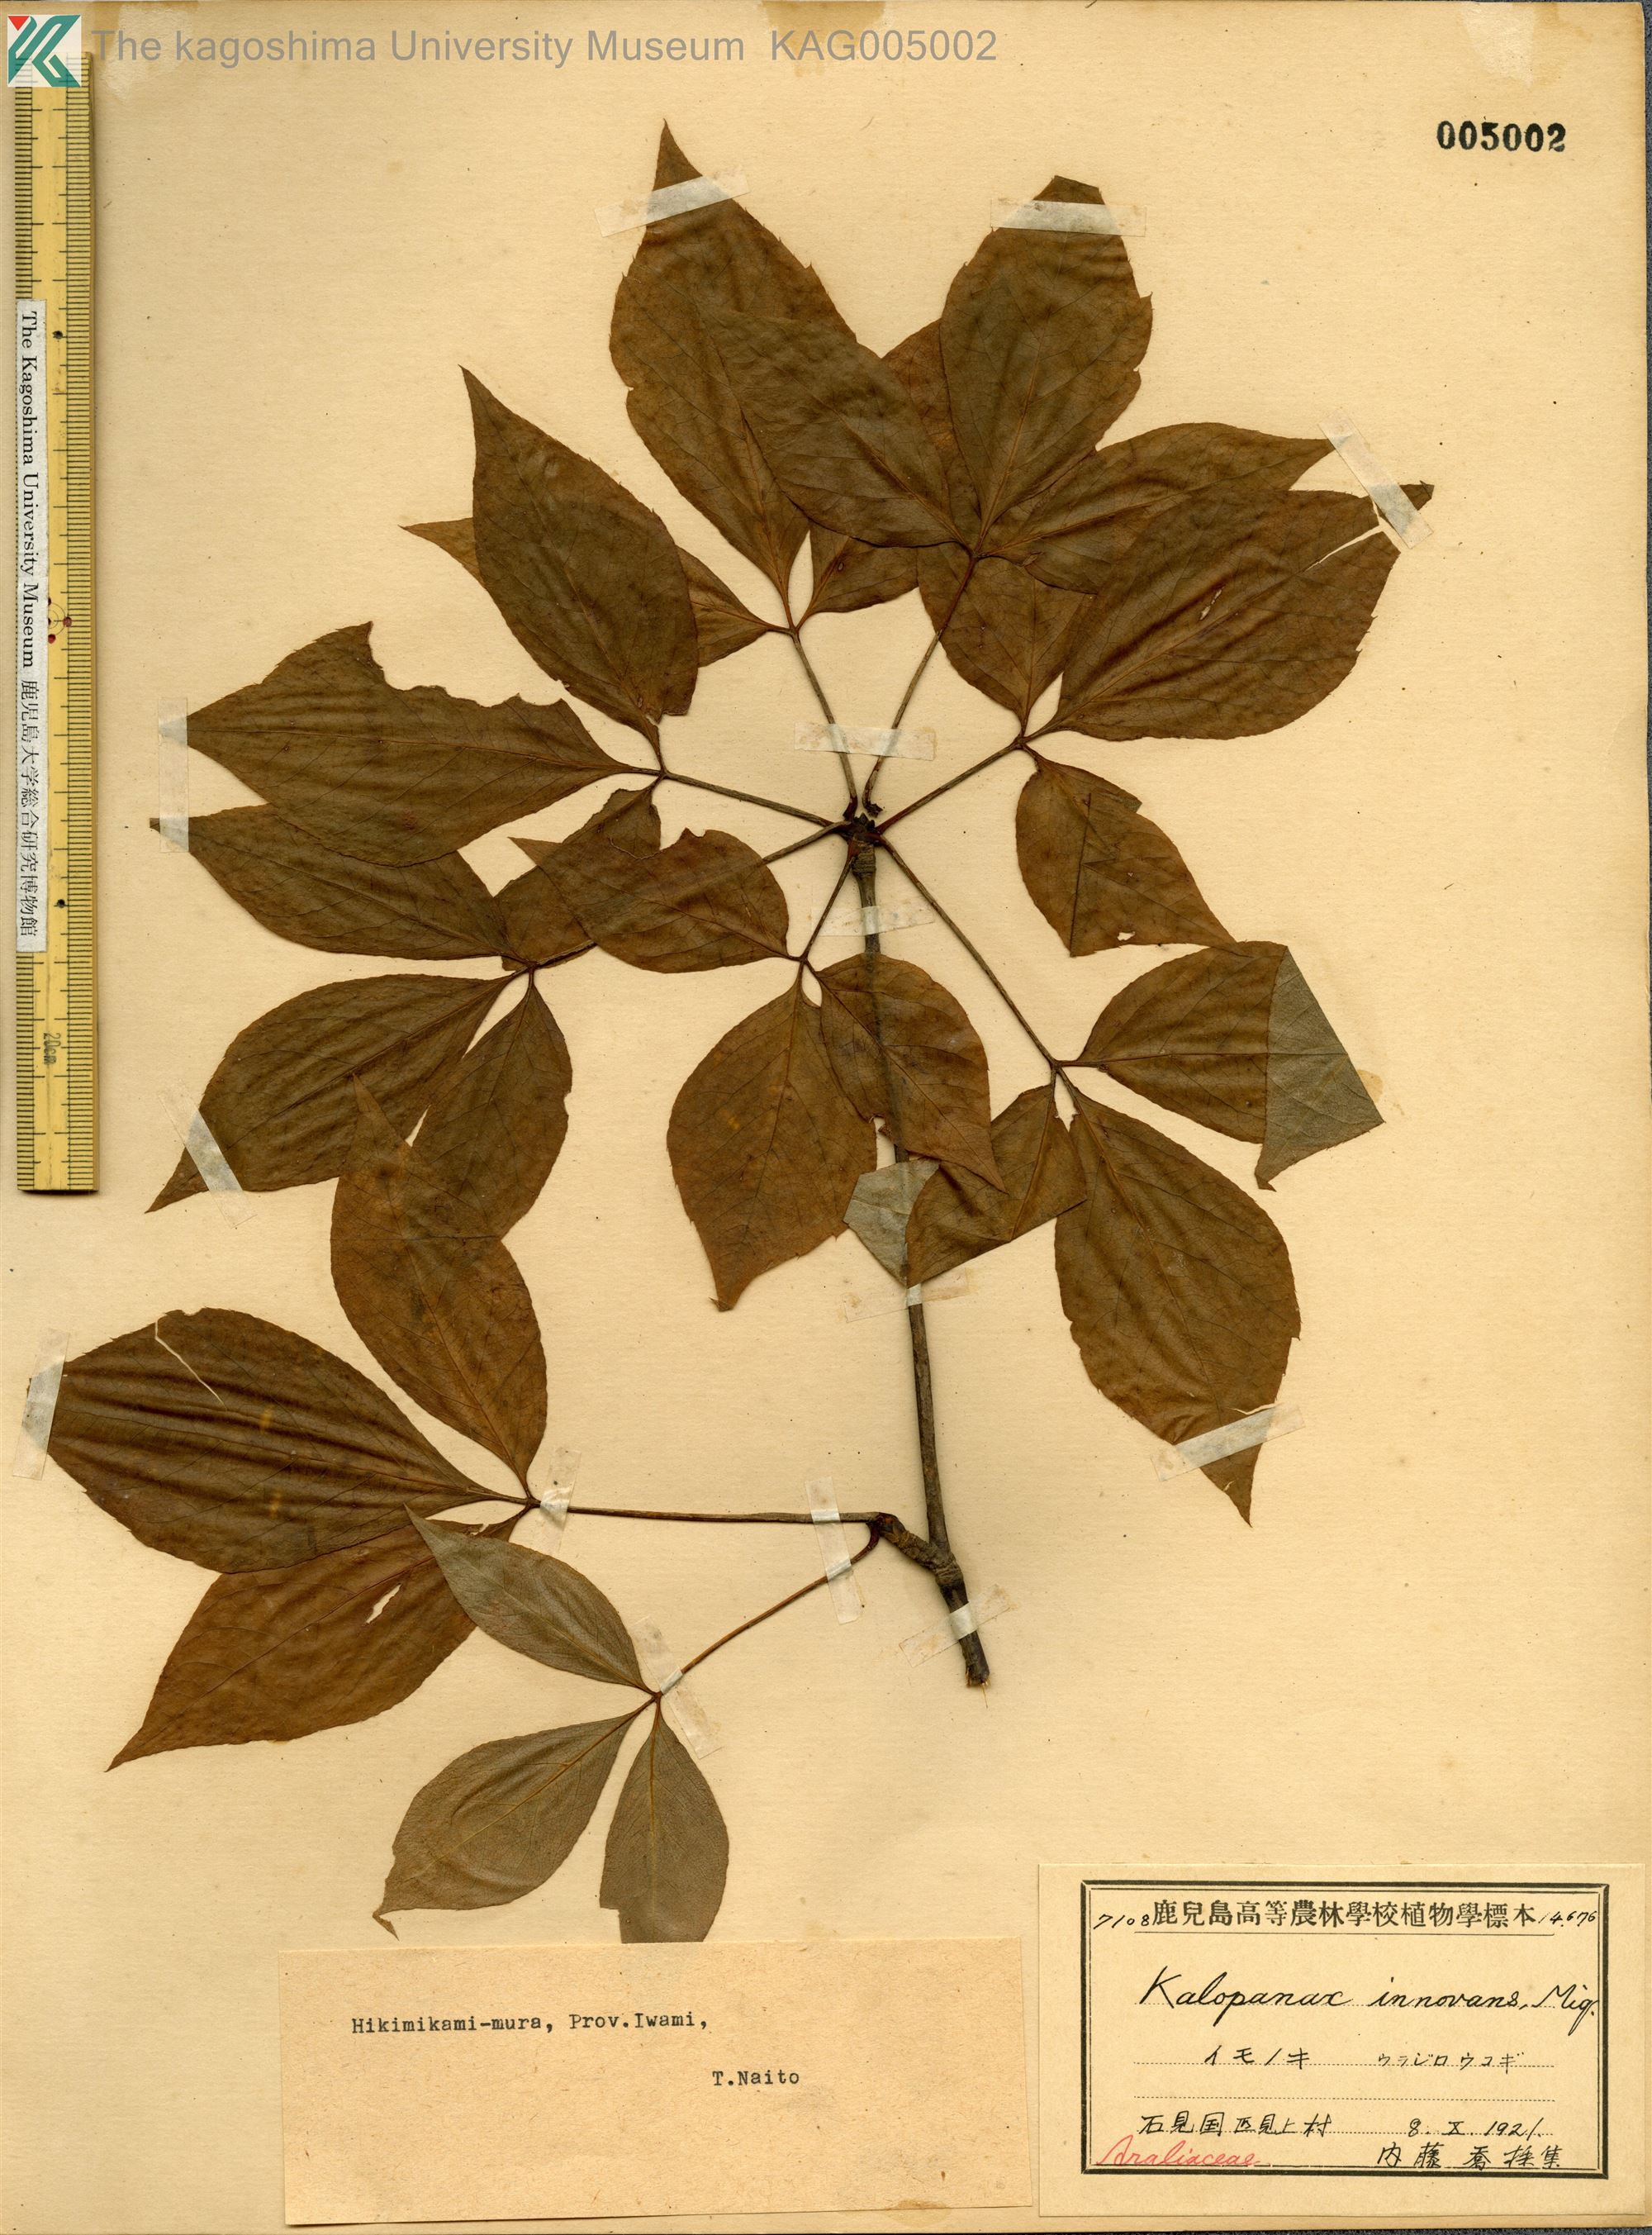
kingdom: Plantae
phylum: Tracheophyta
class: Magnoliopsida
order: Apiales
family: Araliaceae
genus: Gamblea
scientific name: Gamblea innovans
